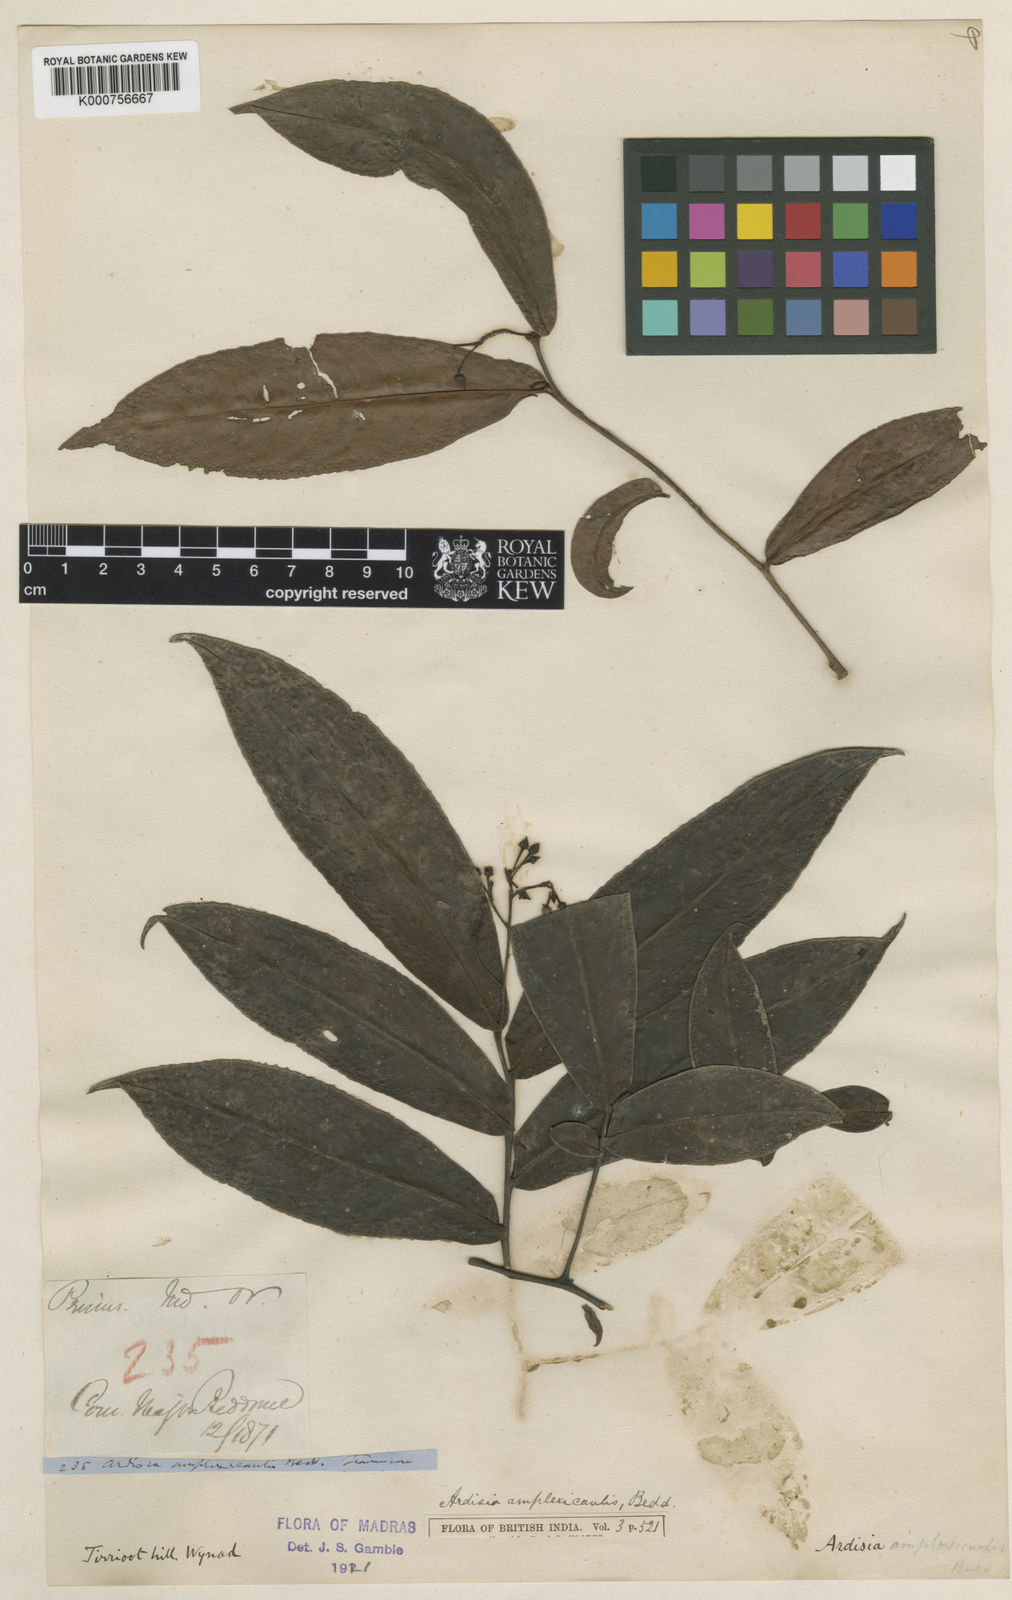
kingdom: Plantae
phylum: Tracheophyta
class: Magnoliopsida
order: Ericales
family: Primulaceae
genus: Ardisia
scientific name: Ardisia amplexicaulis
